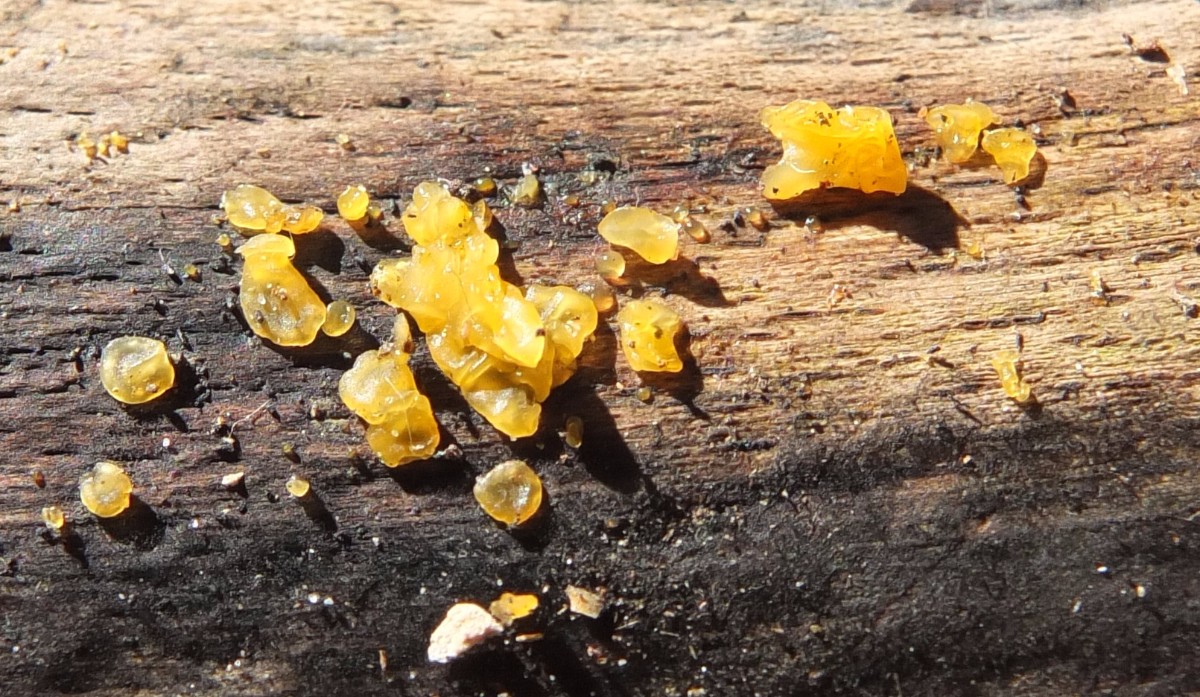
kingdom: Fungi
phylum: Basidiomycota
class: Dacrymycetes
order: Dacrymycetales
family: Dacrymycetaceae
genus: Dacrymyces
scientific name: Dacrymyces lacrymalis
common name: rynket tåresvamp
